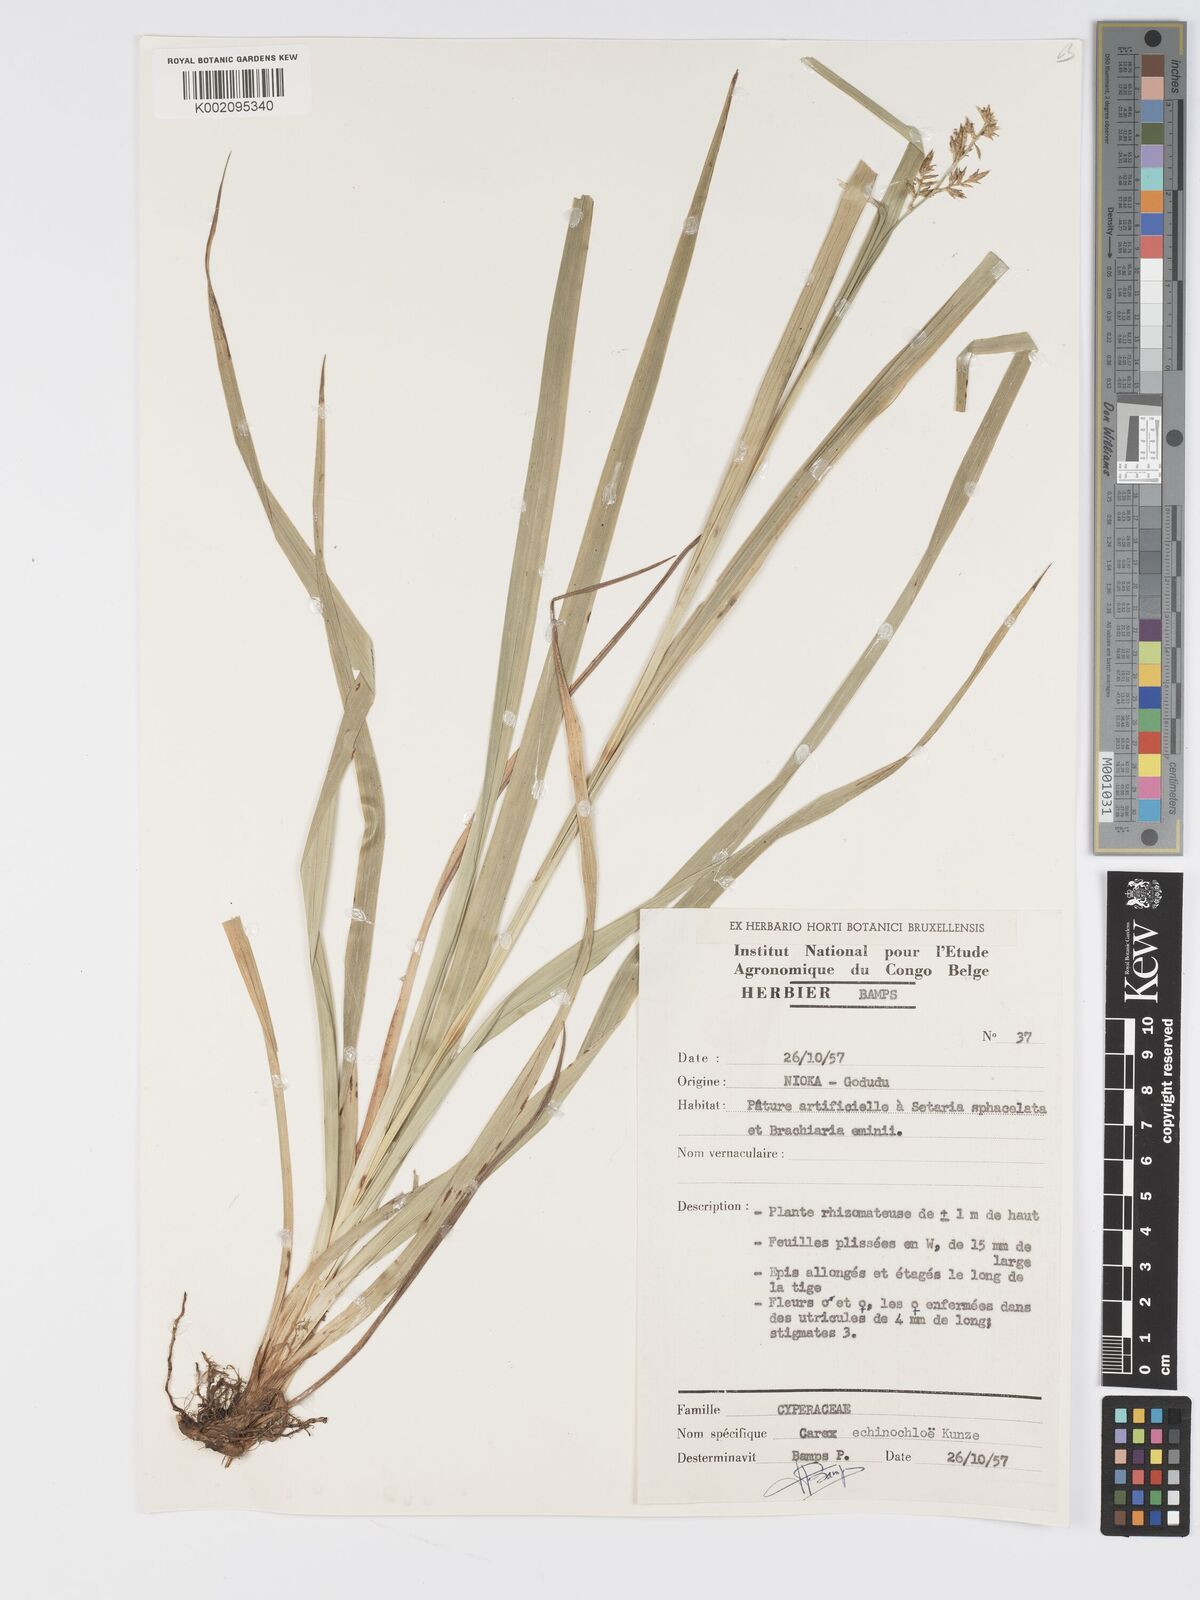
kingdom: Plantae
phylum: Tracheophyta
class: Liliopsida
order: Poales
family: Cyperaceae
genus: Carex
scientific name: Carex echinochloe
